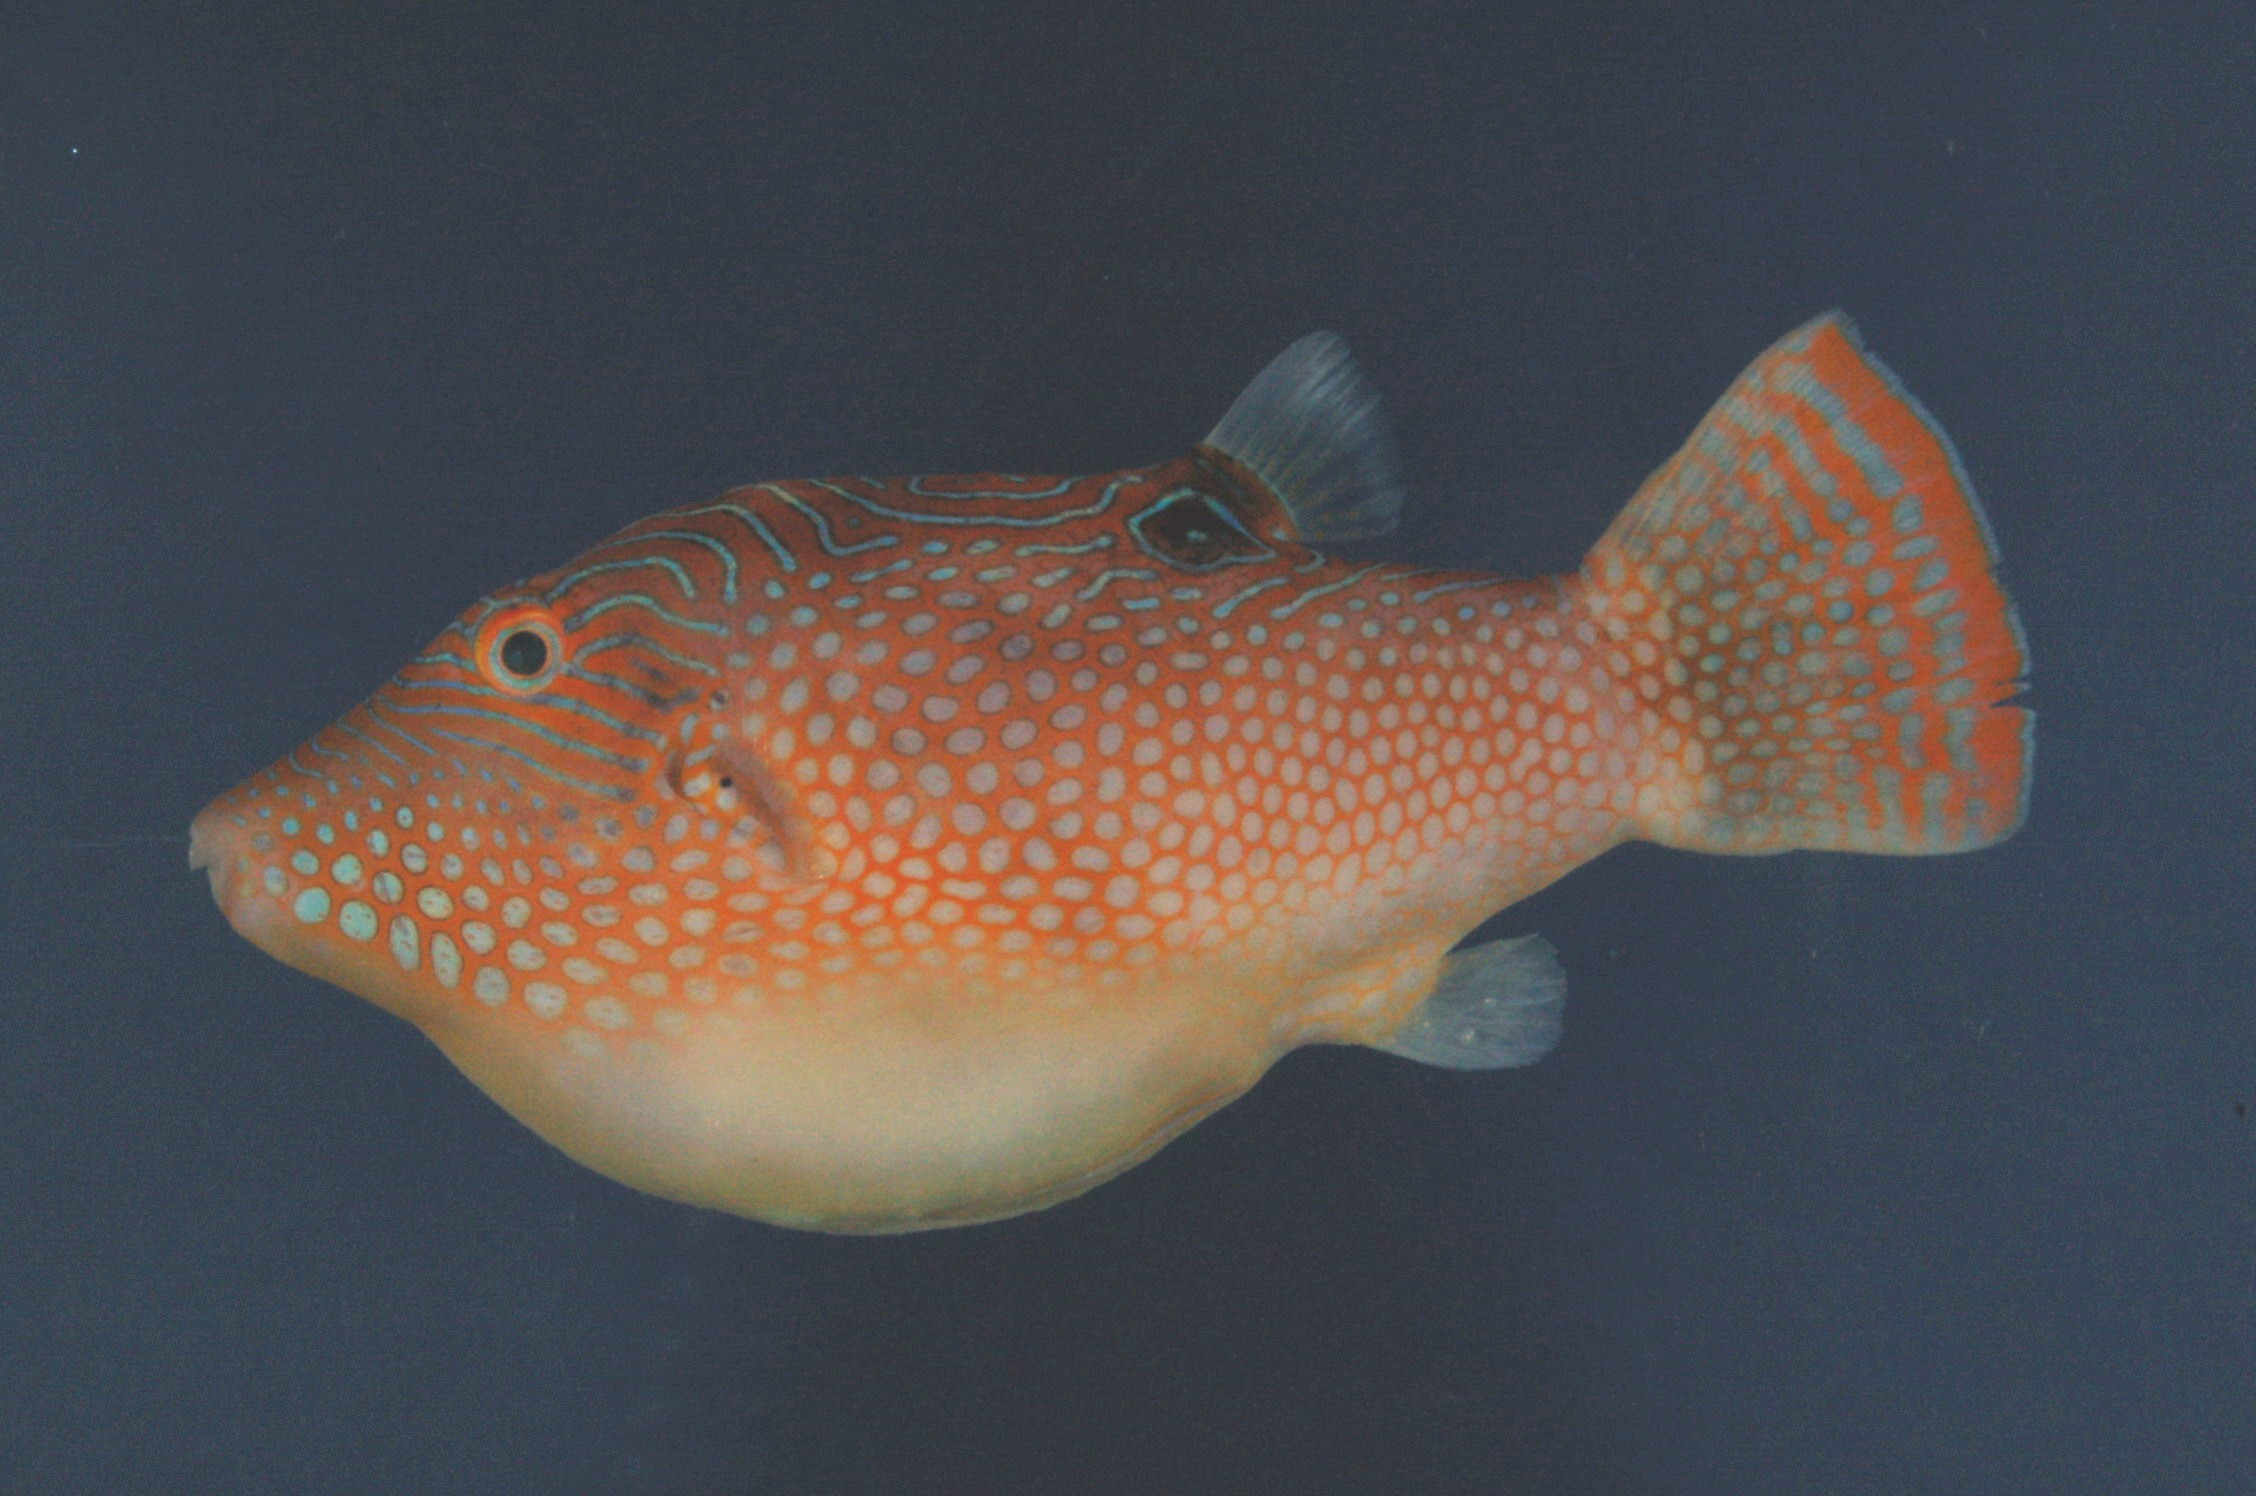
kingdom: Animalia
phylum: Chordata
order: Tetraodontiformes
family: Tetraodontidae
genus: Canthigaster
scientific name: Canthigaster janthinoptera
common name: Honeycomb toby
